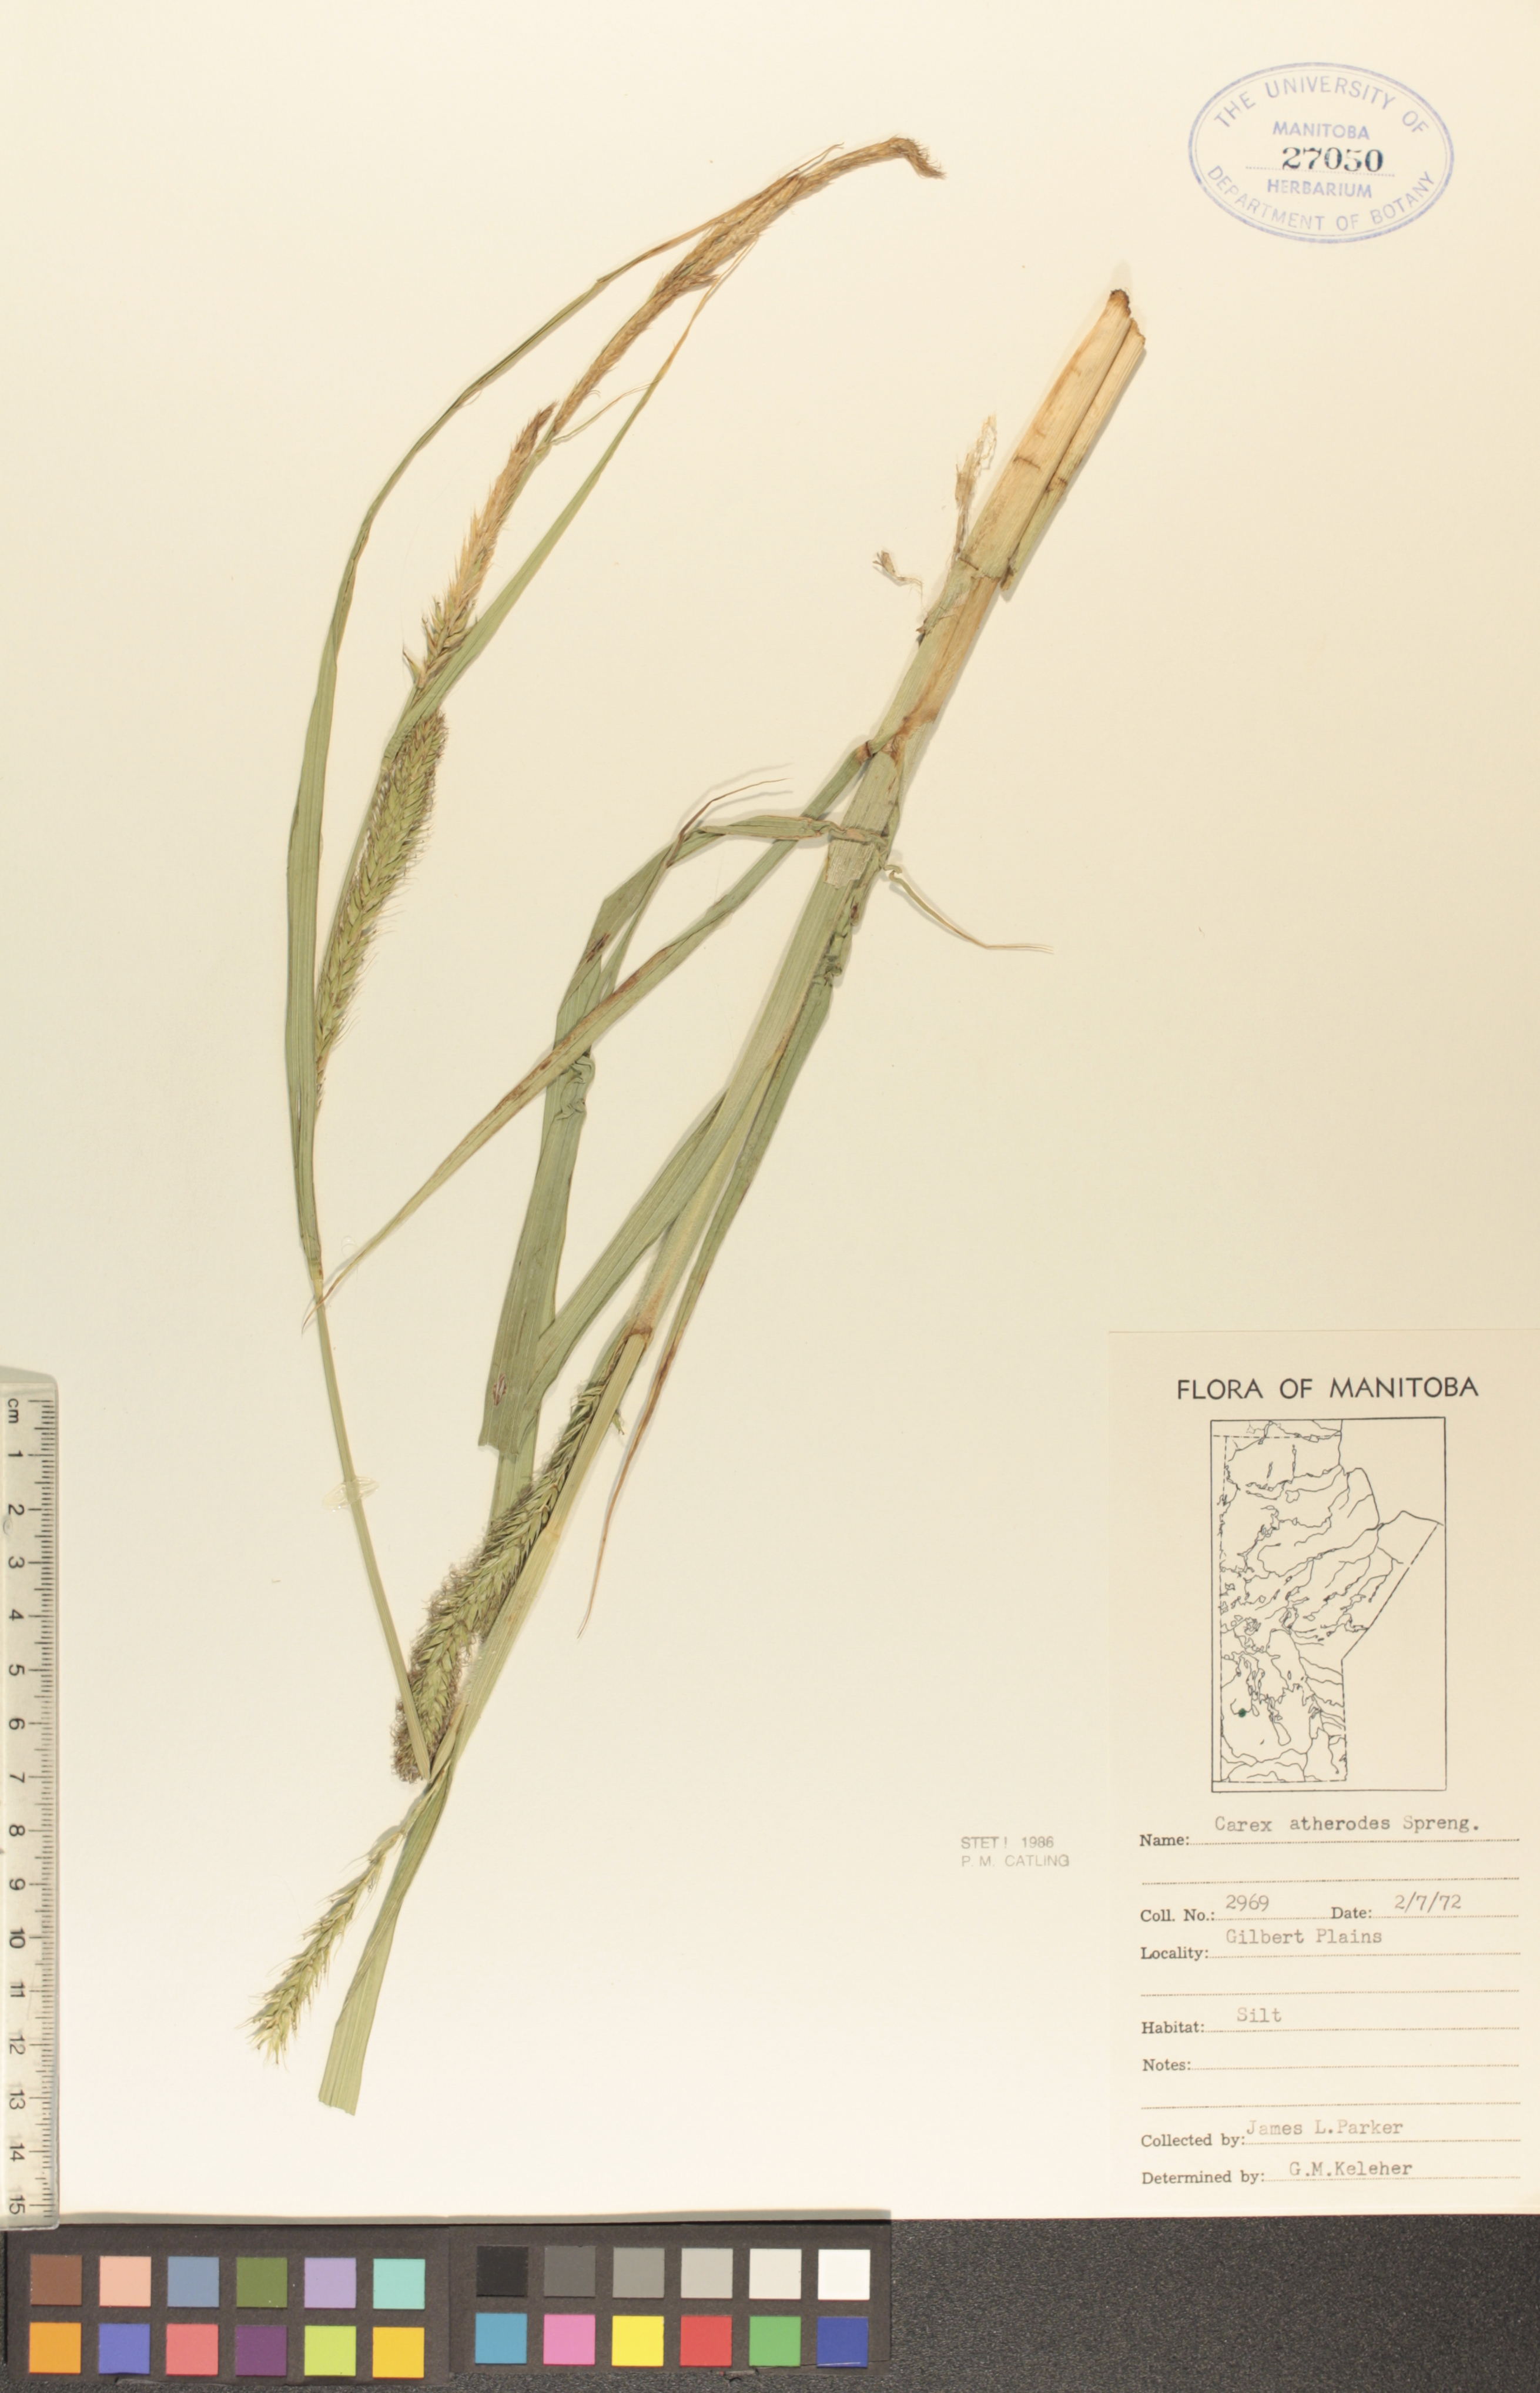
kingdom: Plantae
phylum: Tracheophyta
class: Liliopsida
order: Poales
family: Cyperaceae
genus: Carex
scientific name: Carex atherodes
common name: Wheat sedge
